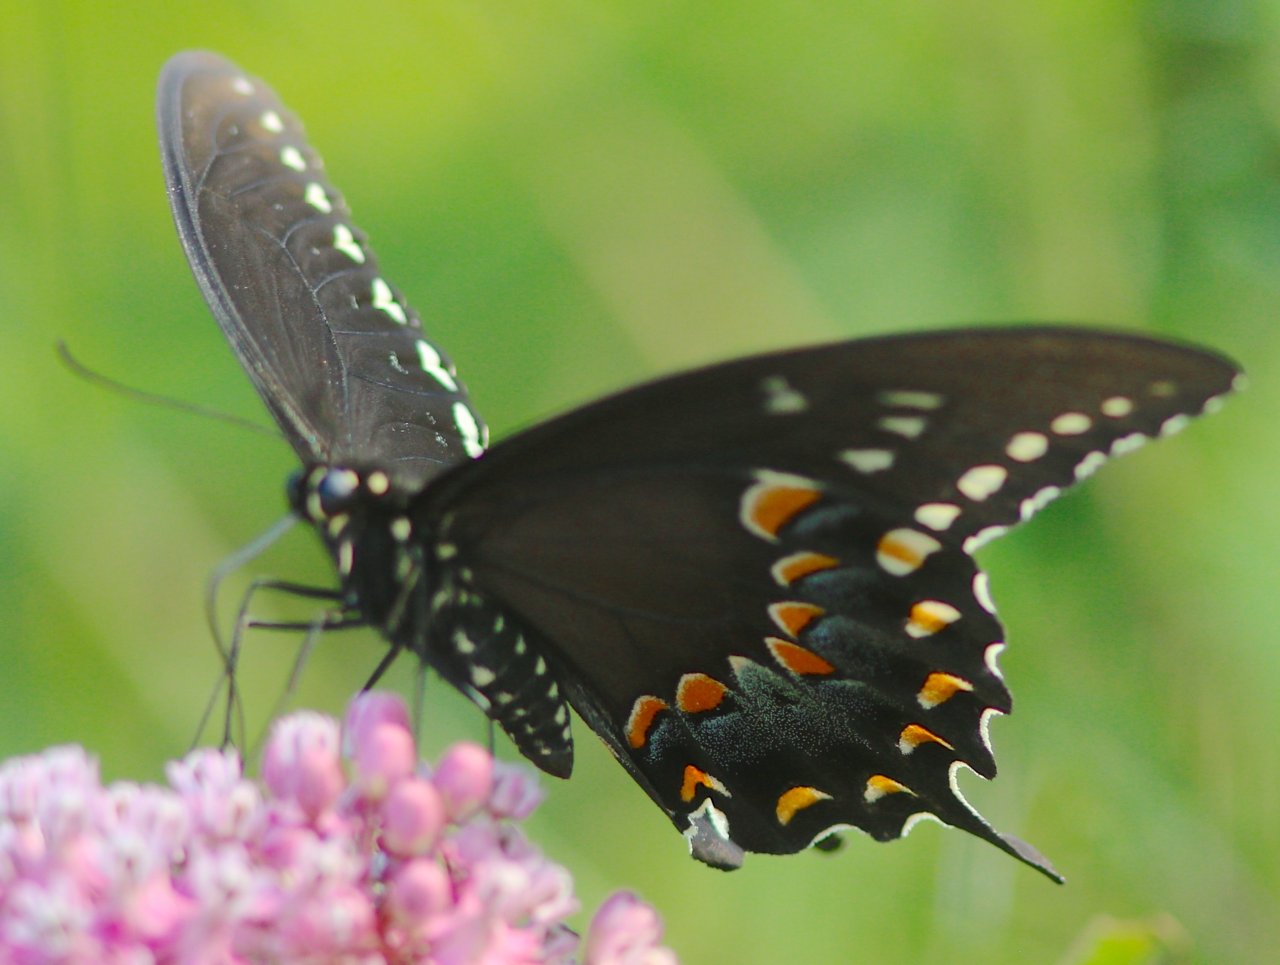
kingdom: Animalia
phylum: Arthropoda
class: Insecta
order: Lepidoptera
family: Papilionidae
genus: Pterourus
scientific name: Pterourus troilus
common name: Spicebush Swallowtail
